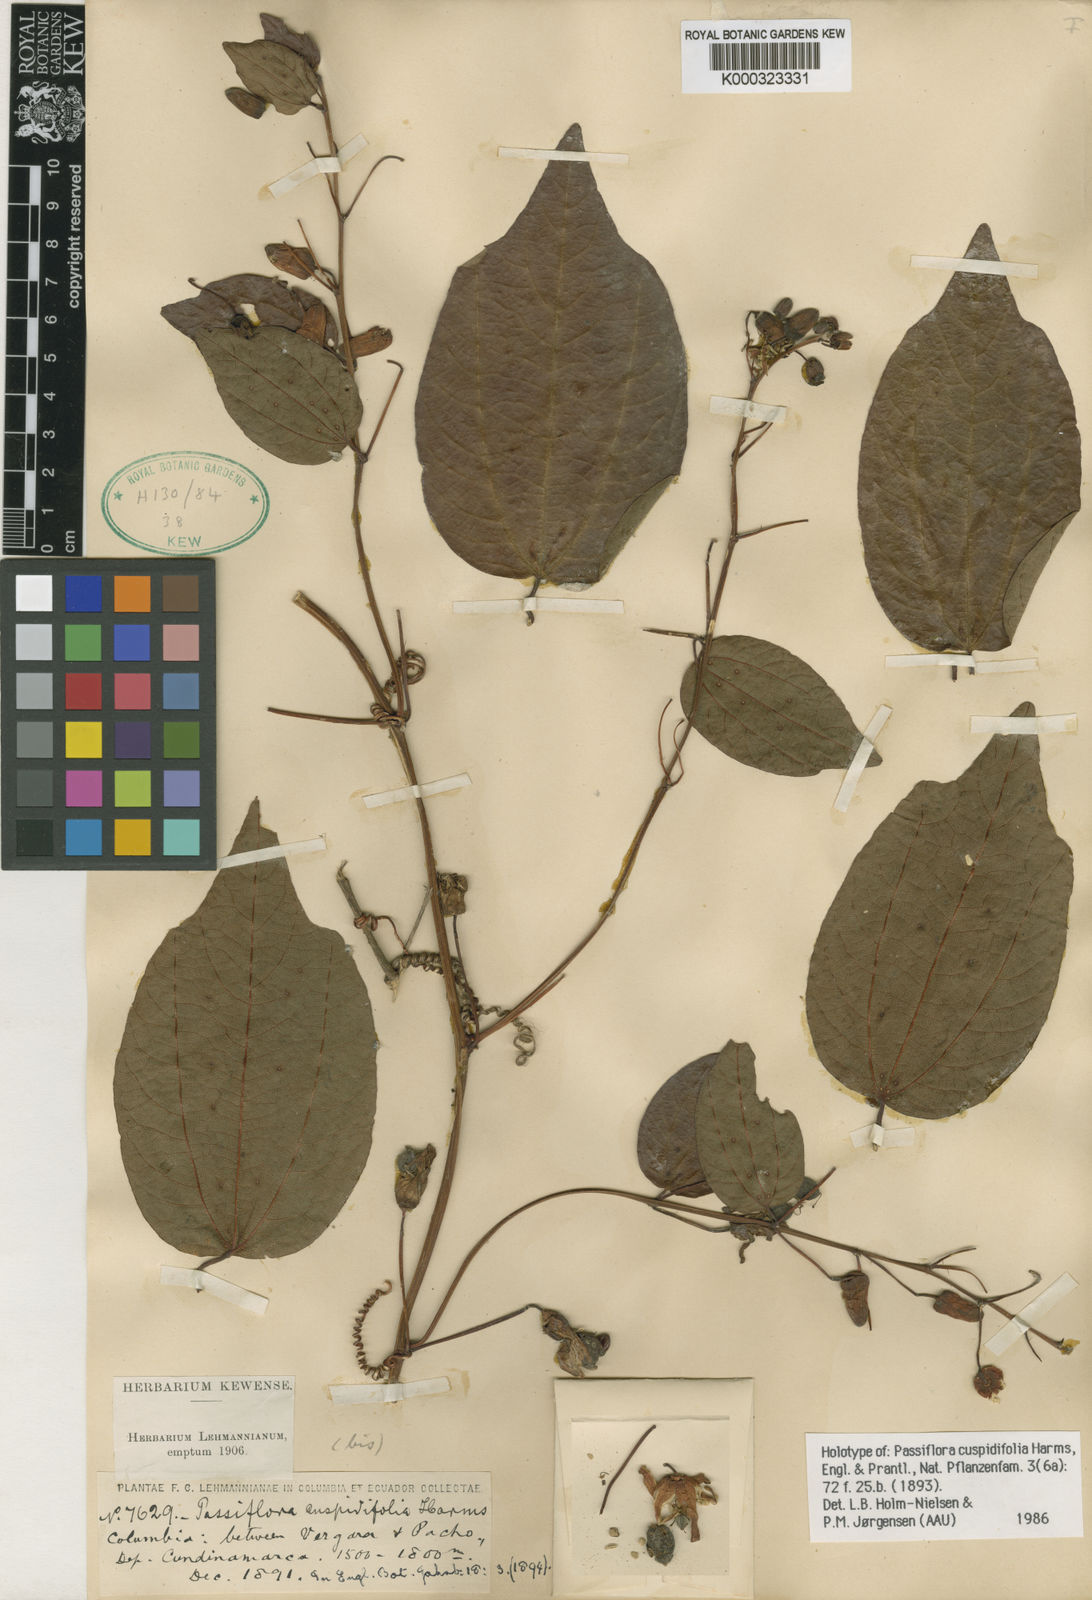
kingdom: Plantae
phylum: Tracheophyta
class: Magnoliopsida
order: Malpighiales
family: Passifloraceae
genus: Passiflora
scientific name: Passiflora cuspidifolia
